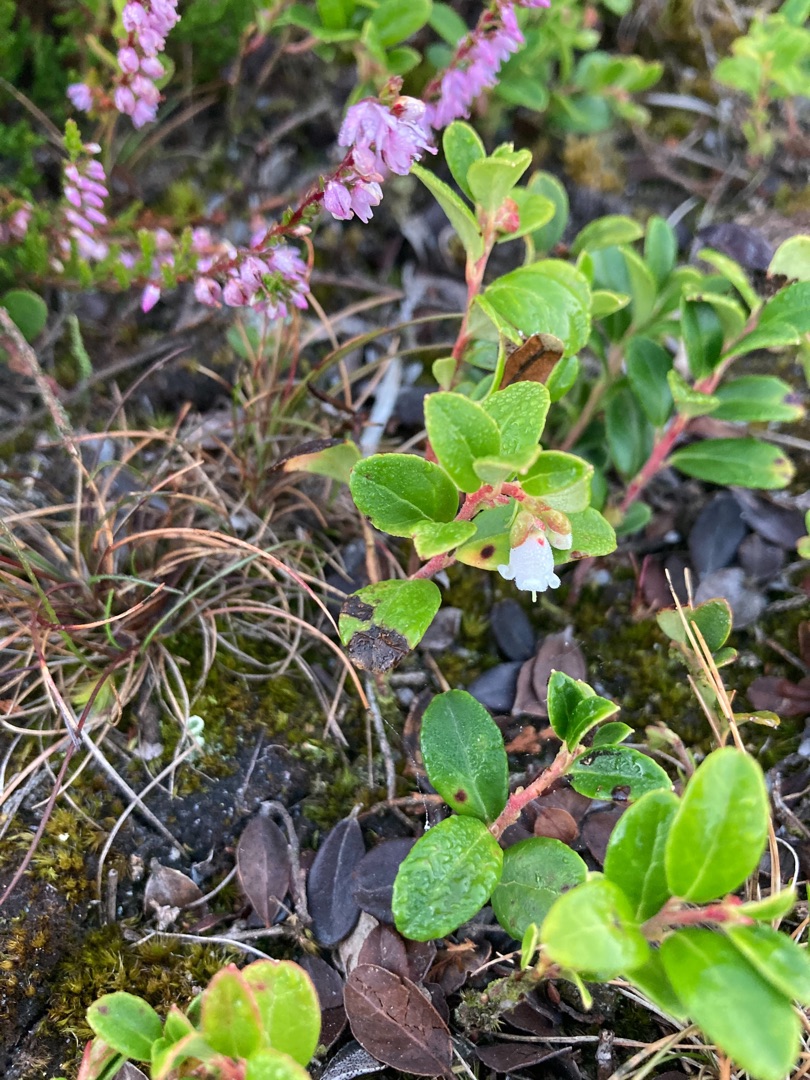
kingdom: Plantae
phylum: Tracheophyta
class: Magnoliopsida
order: Ericales
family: Ericaceae
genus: Vaccinium
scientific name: Vaccinium vitis-idaea
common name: Tyttebær
